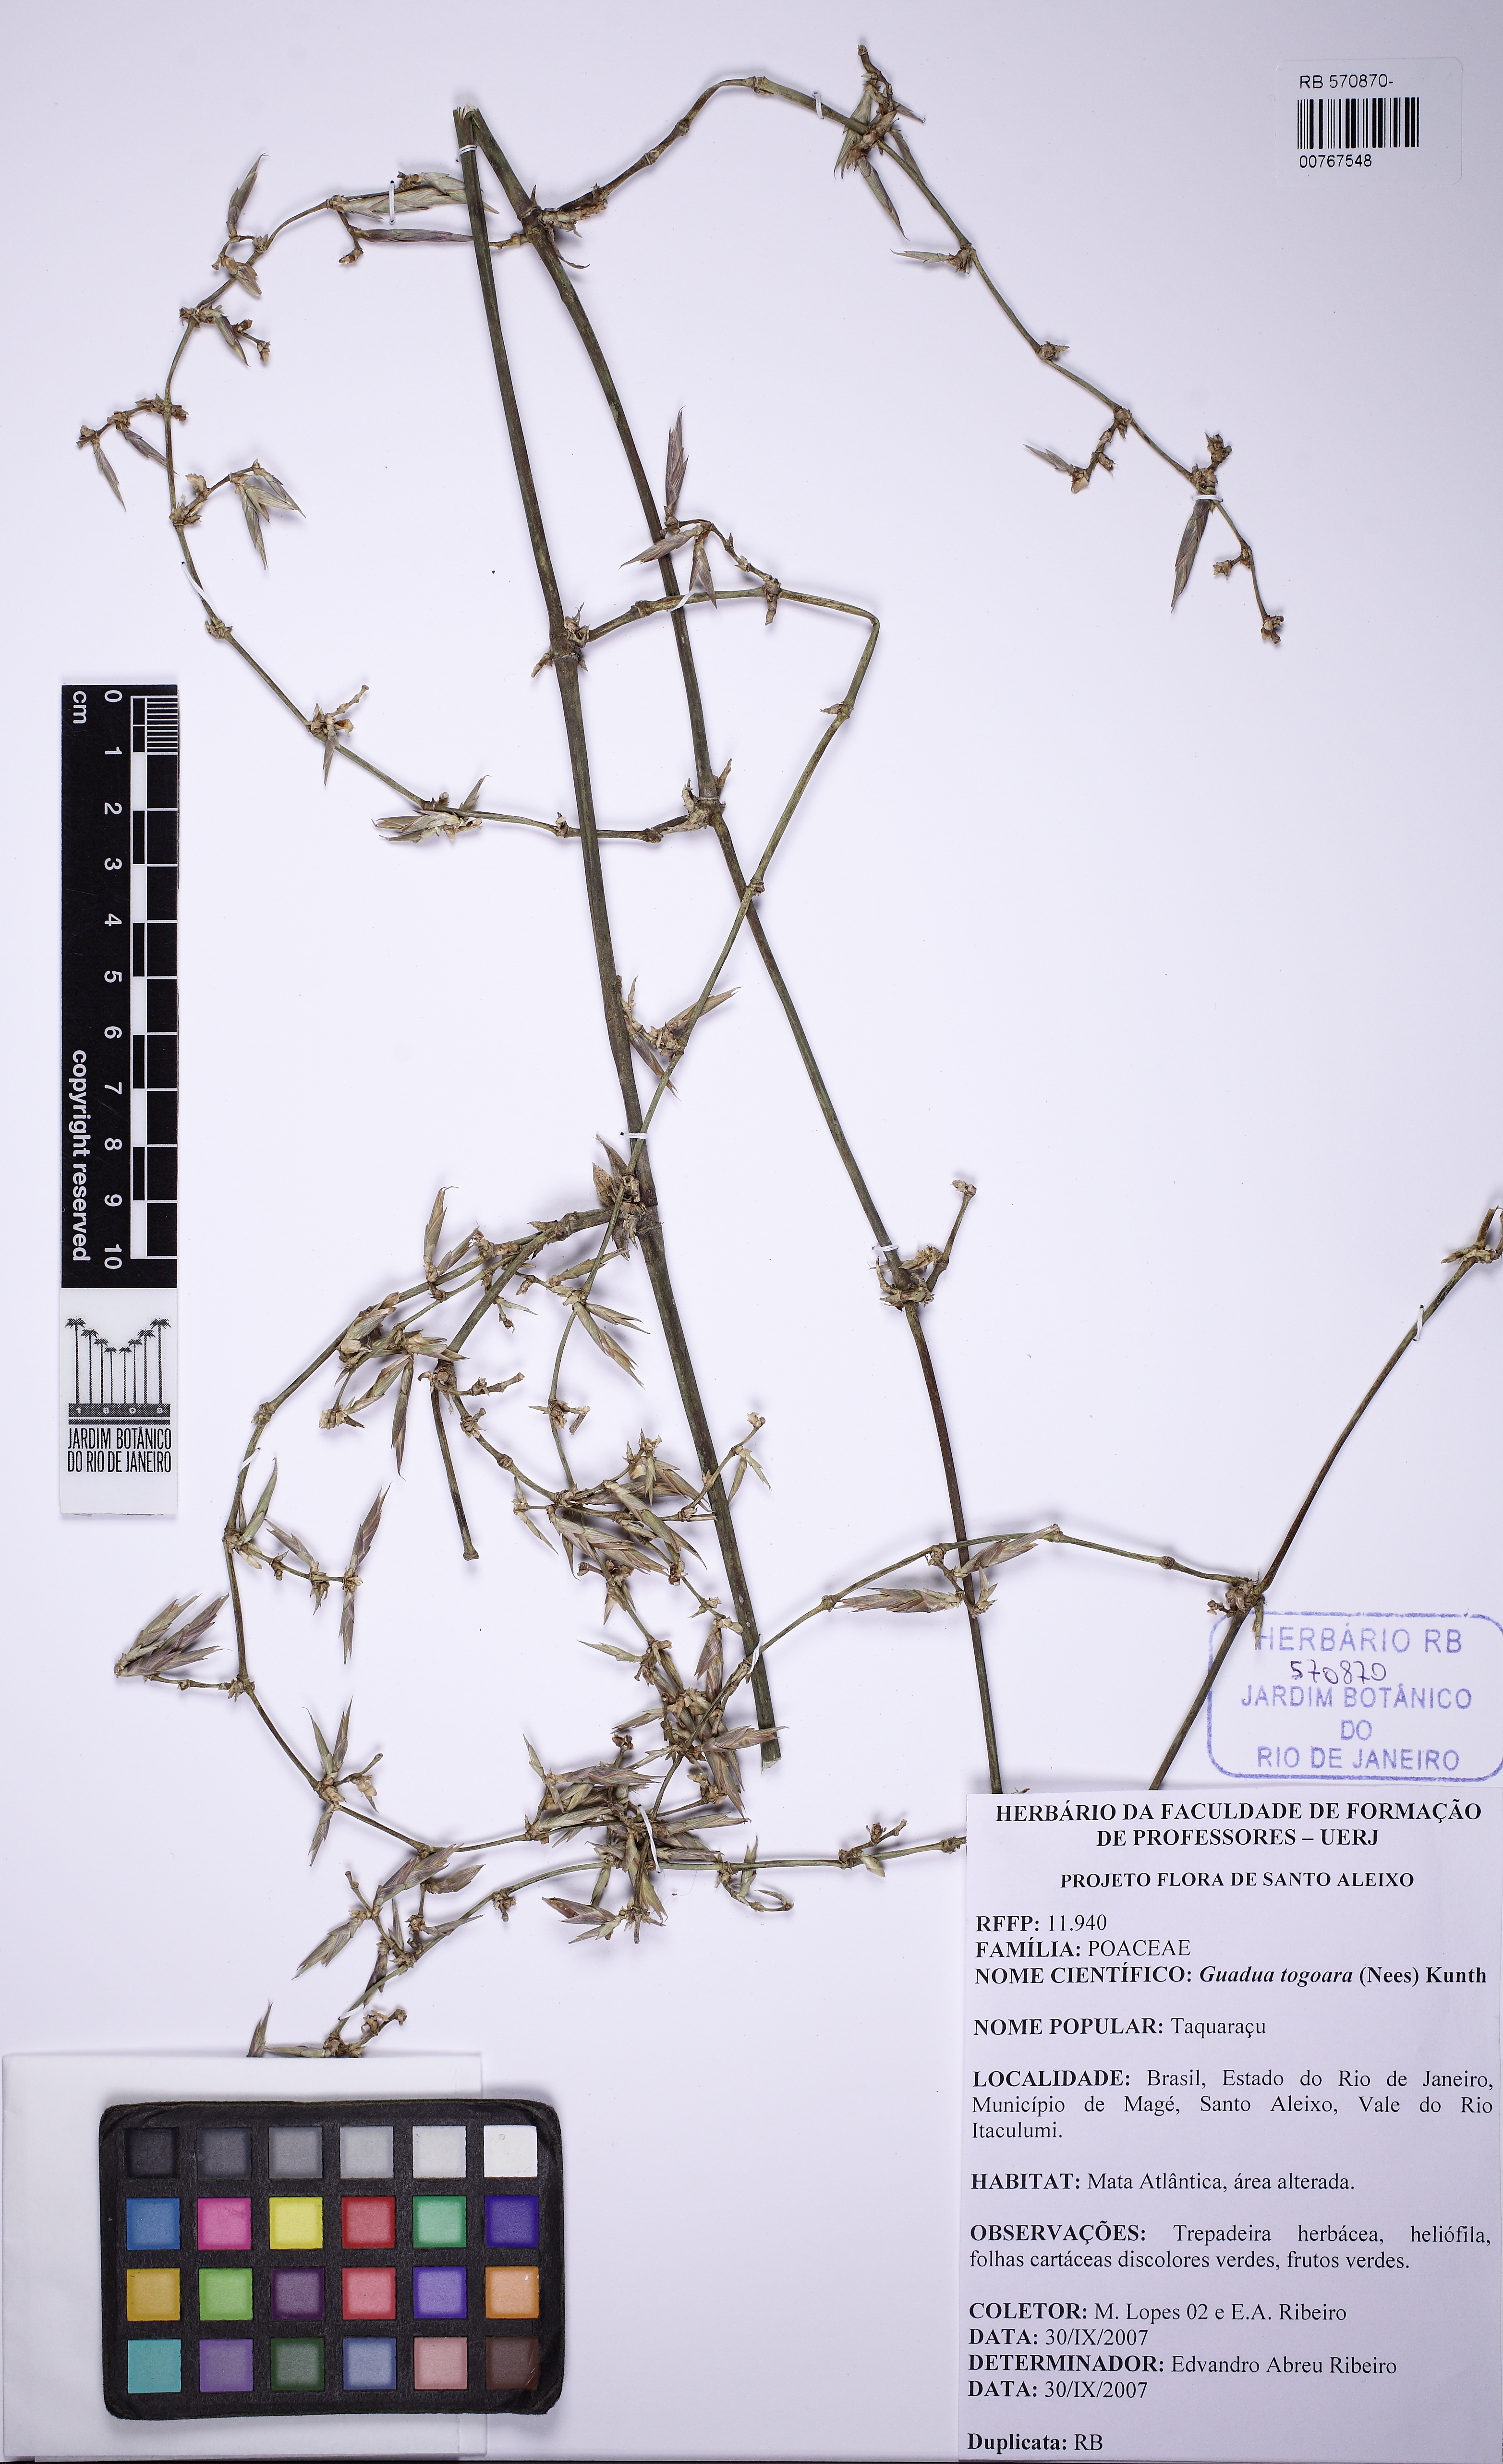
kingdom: Plantae
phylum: Tracheophyta
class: Liliopsida
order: Poales
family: Poaceae
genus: Guadua
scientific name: Guadua tagoara
